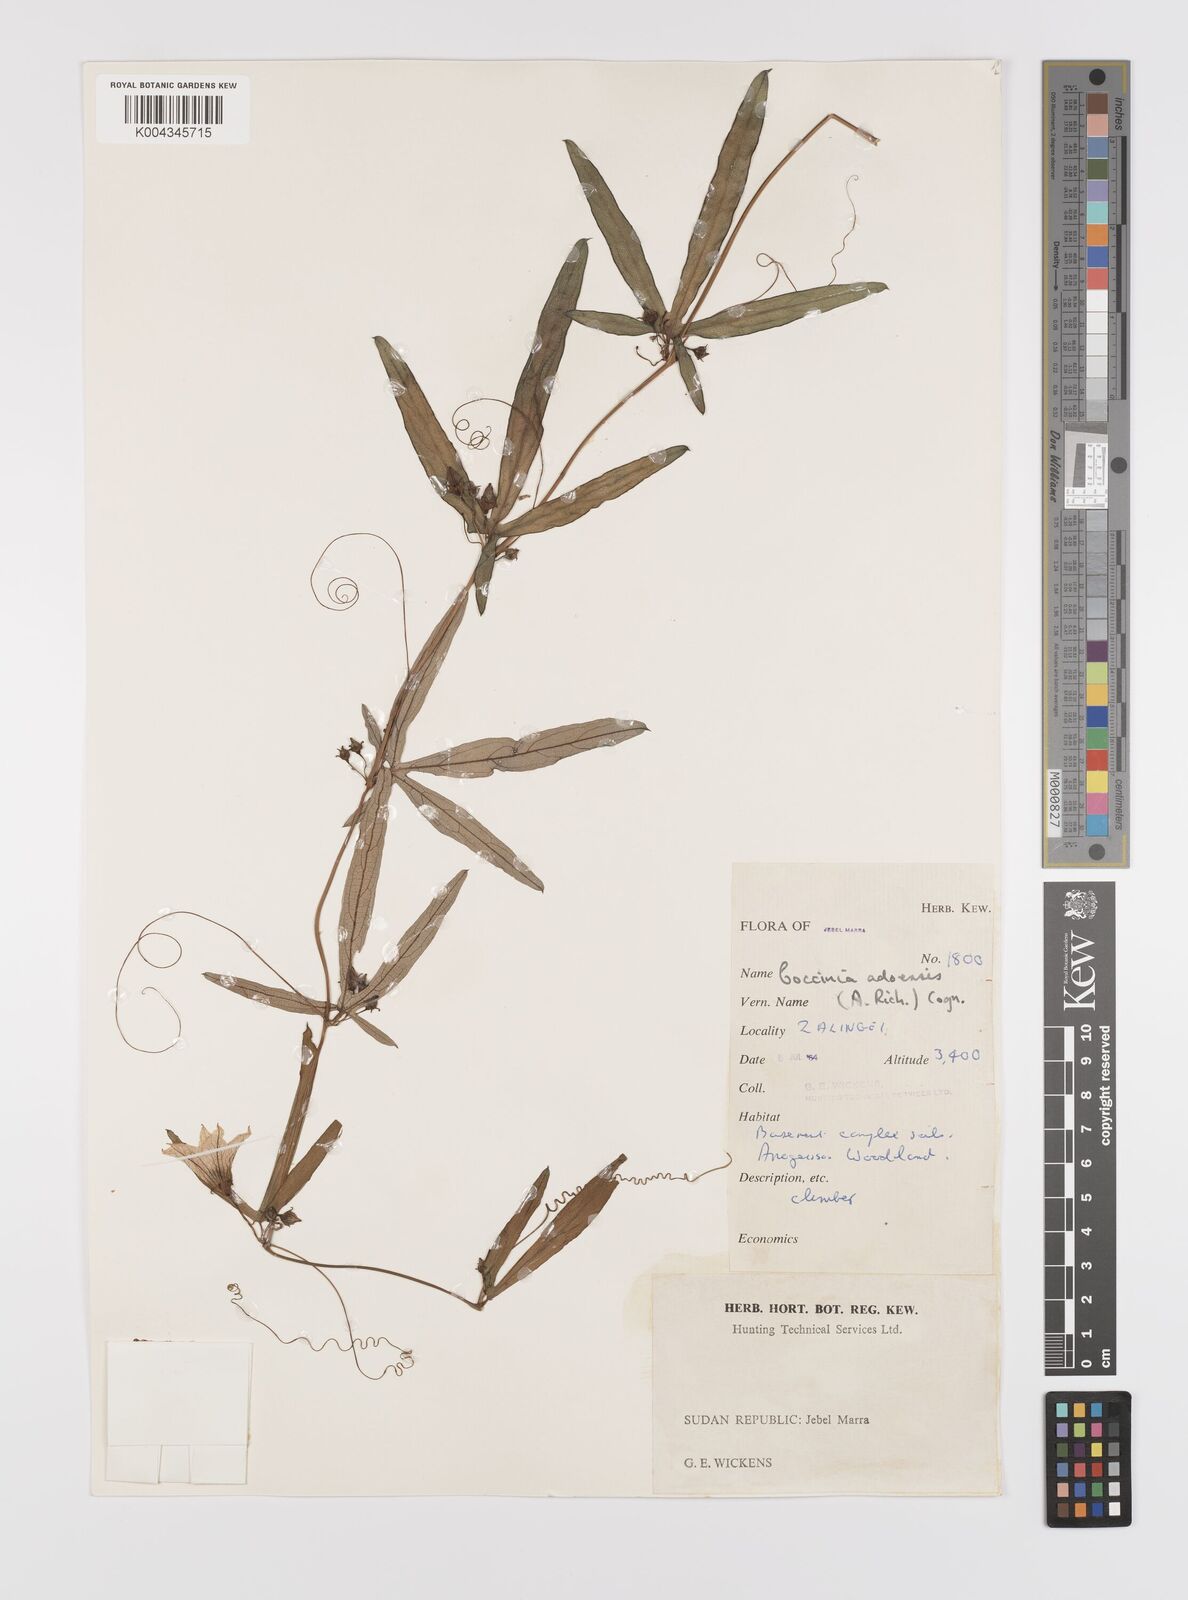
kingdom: Plantae
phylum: Tracheophyta
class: Magnoliopsida
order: Cucurbitales
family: Cucurbitaceae
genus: Coccinia
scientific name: Coccinia adoensis
